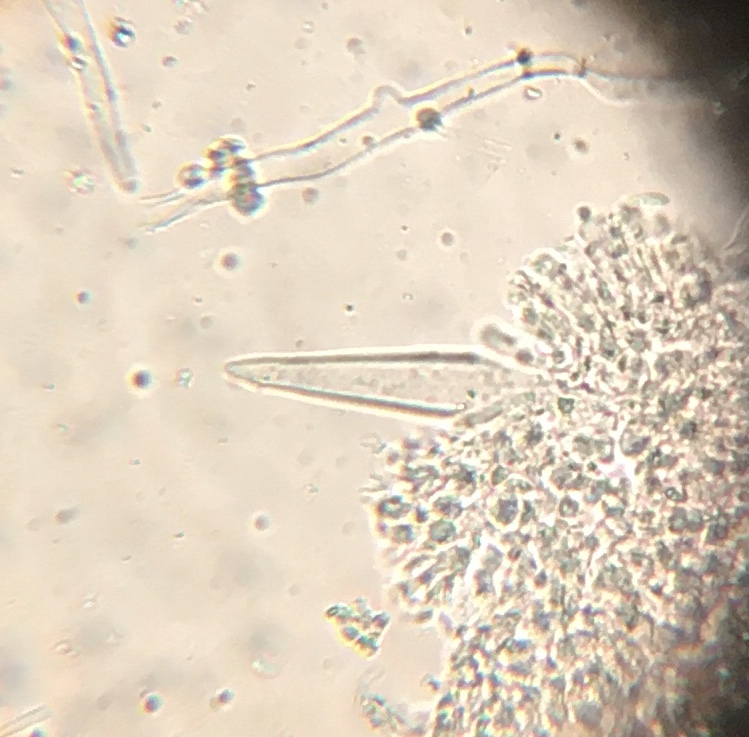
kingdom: Fungi
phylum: Basidiomycota
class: Agaricomycetes
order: Agaricales
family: Physalacriaceae
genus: Strobilurus
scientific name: Strobilurus tenacellus
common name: sommer-koglehat
